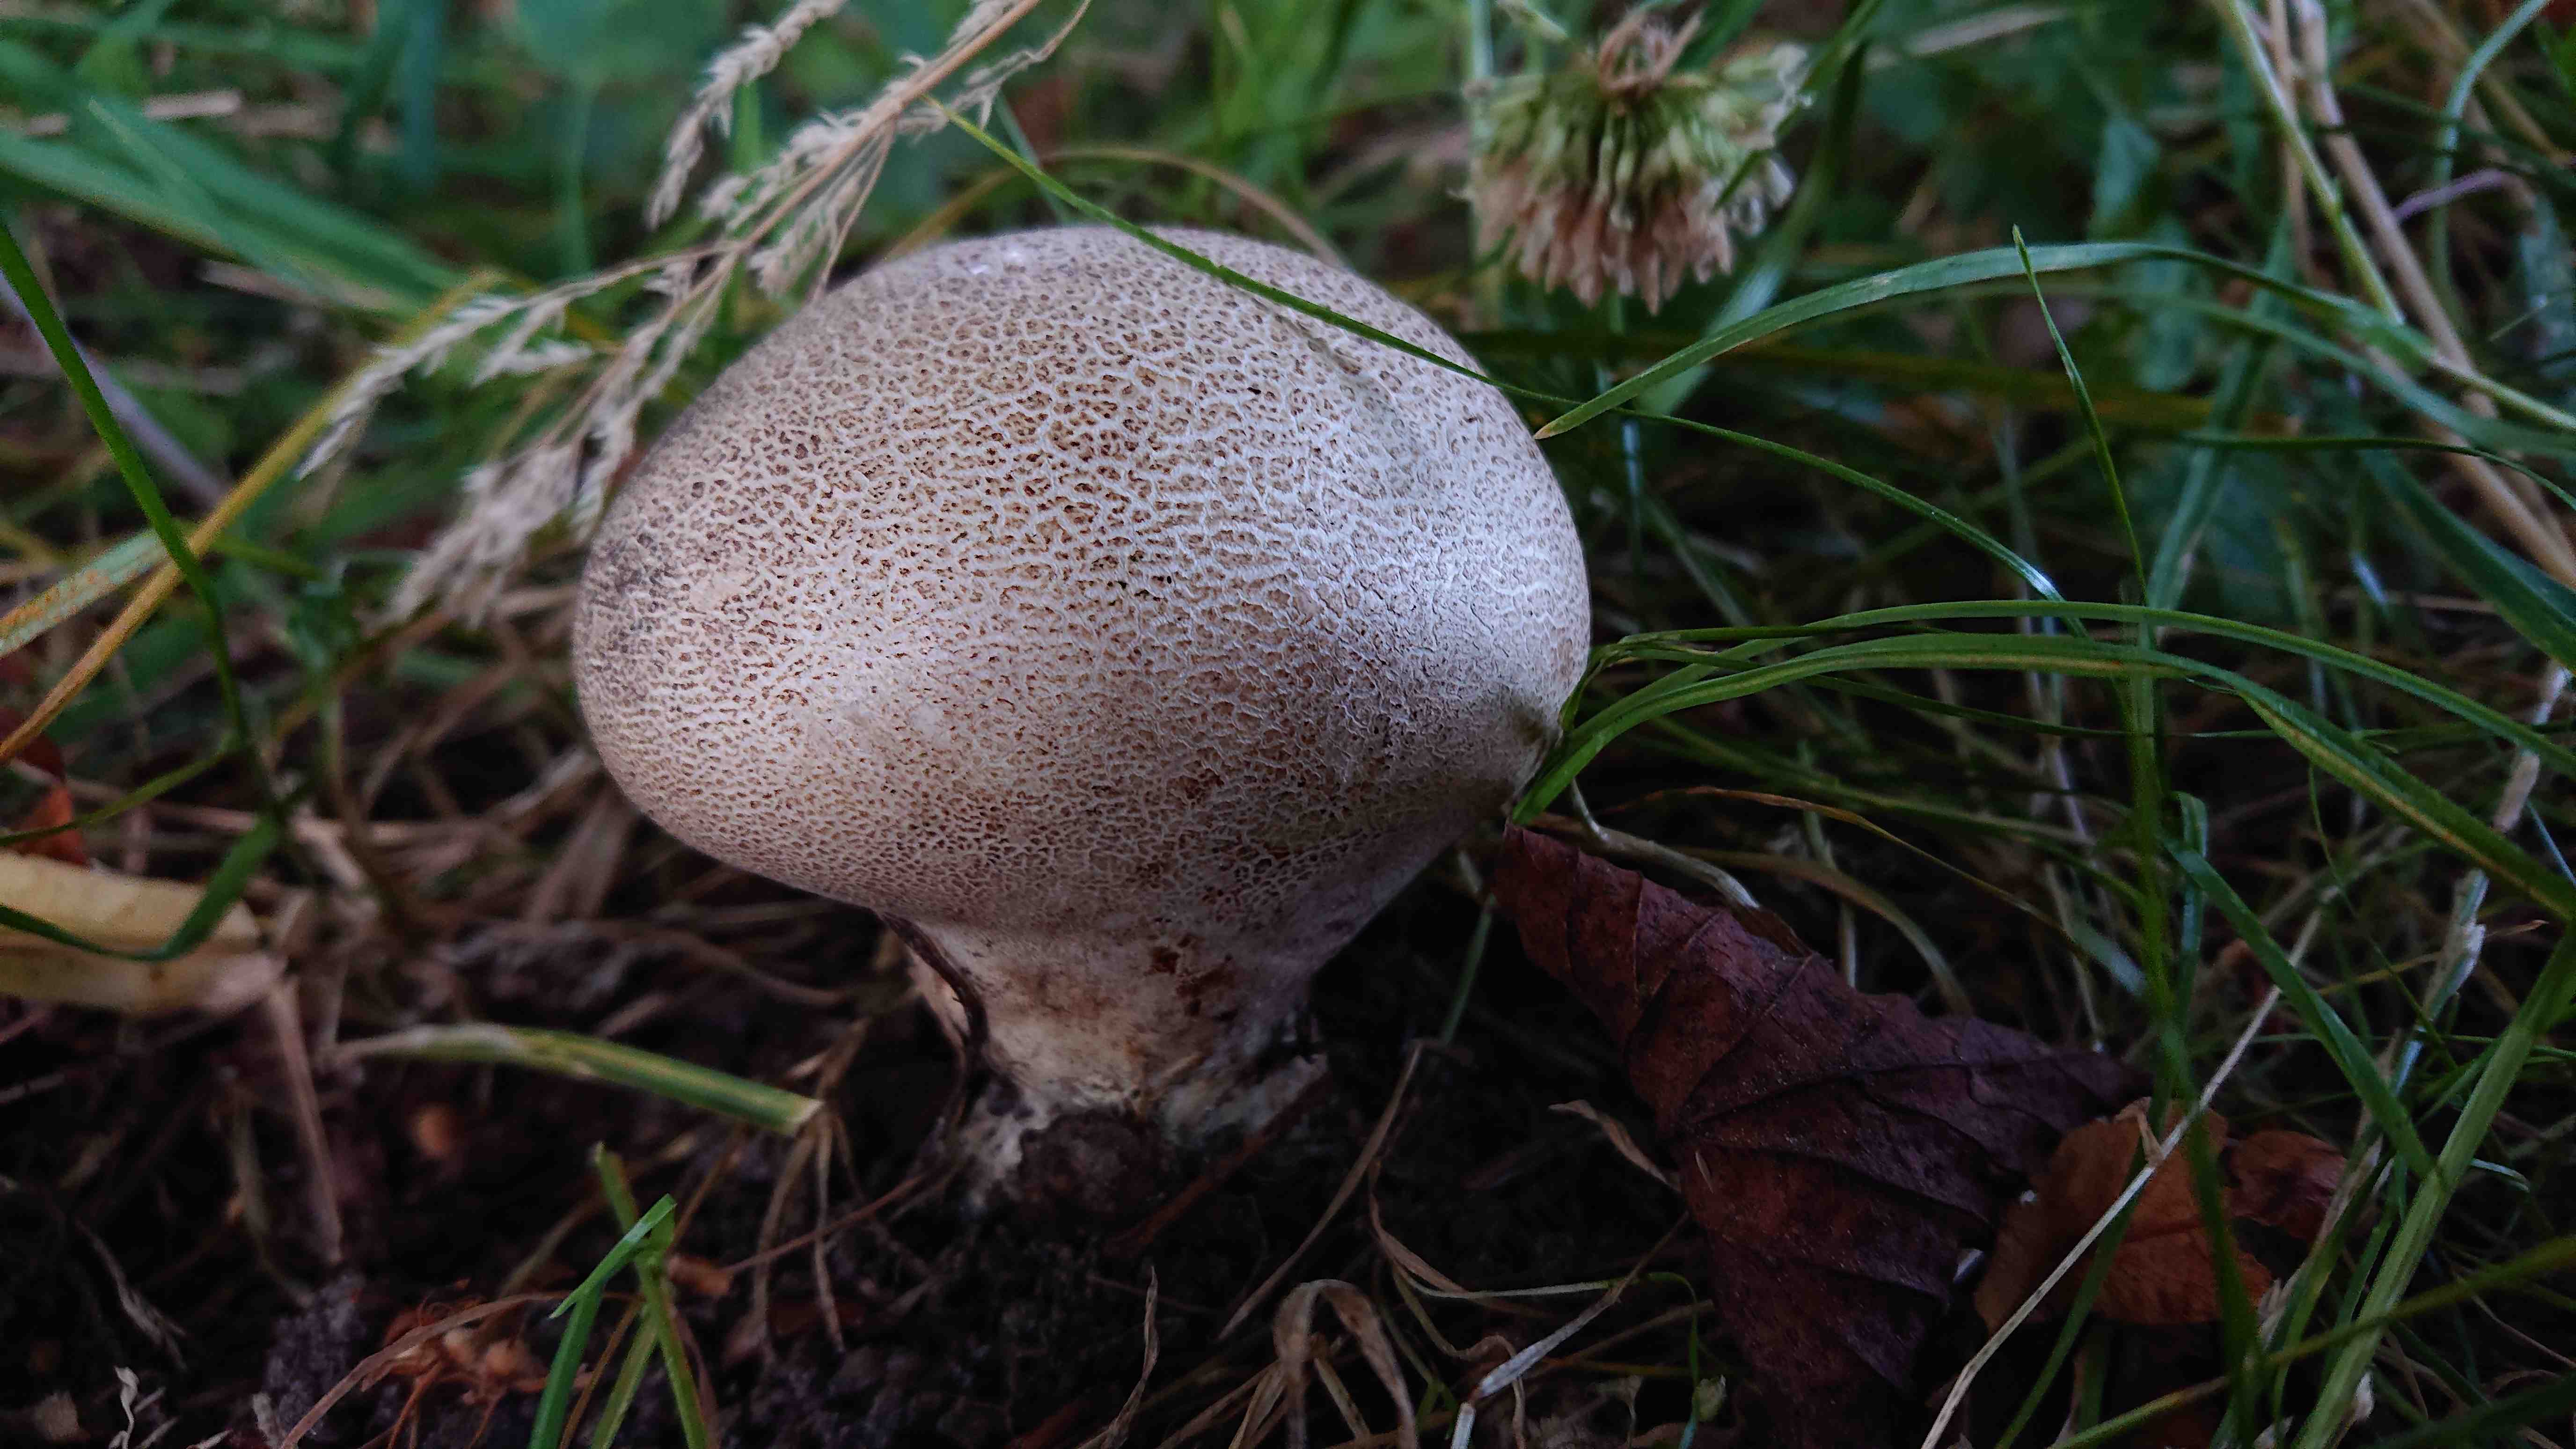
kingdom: Fungi
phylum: Basidiomycota
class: Agaricomycetes
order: Boletales
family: Sclerodermataceae
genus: Scleroderma
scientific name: Scleroderma verrucosum
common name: stilket bruskbold
